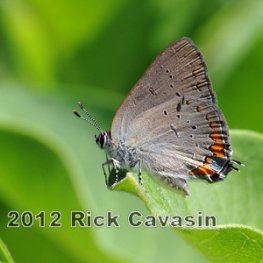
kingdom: Animalia
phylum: Arthropoda
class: Insecta
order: Lepidoptera
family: Lycaenidae
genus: Strymon
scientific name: Strymon acadica
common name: Acadian Hairstreak
